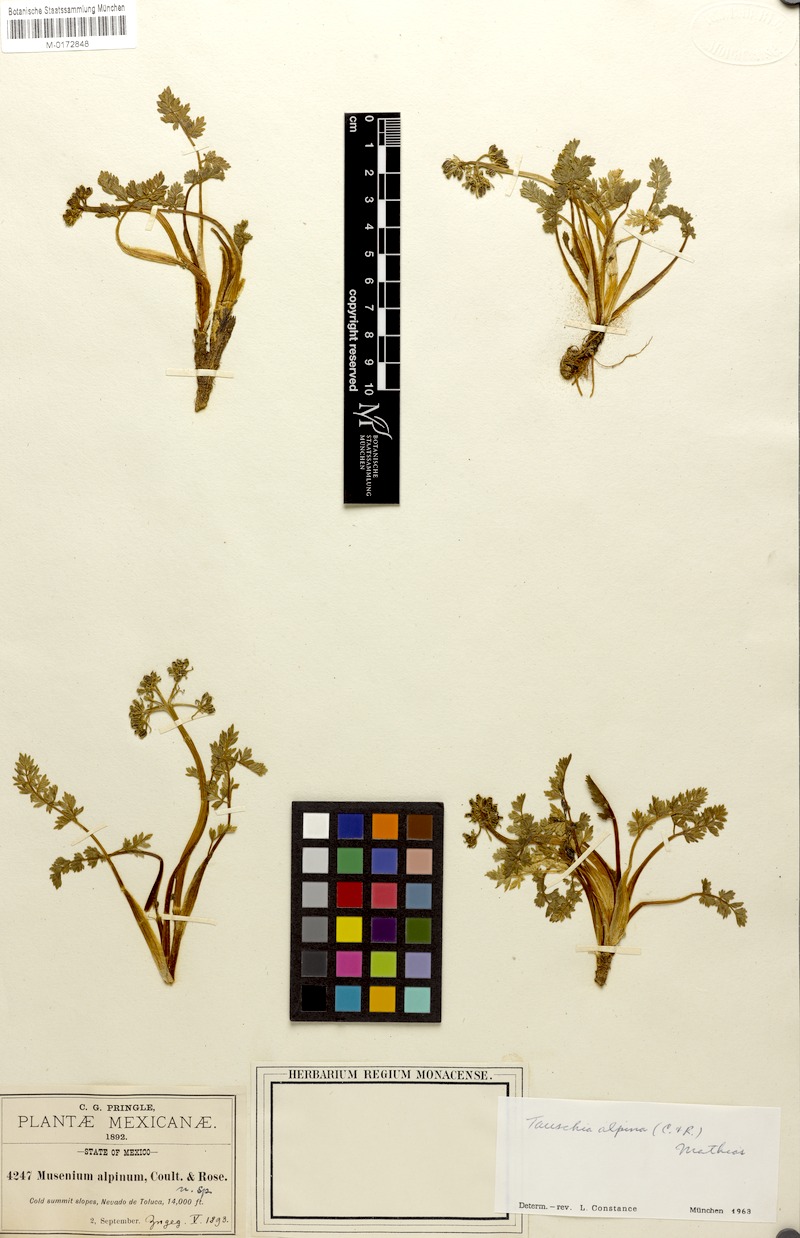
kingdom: Plantae
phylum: Tracheophyta
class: Magnoliopsida
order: Apiales
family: Apiaceae
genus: Tauschia
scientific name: Tauschia alpina
